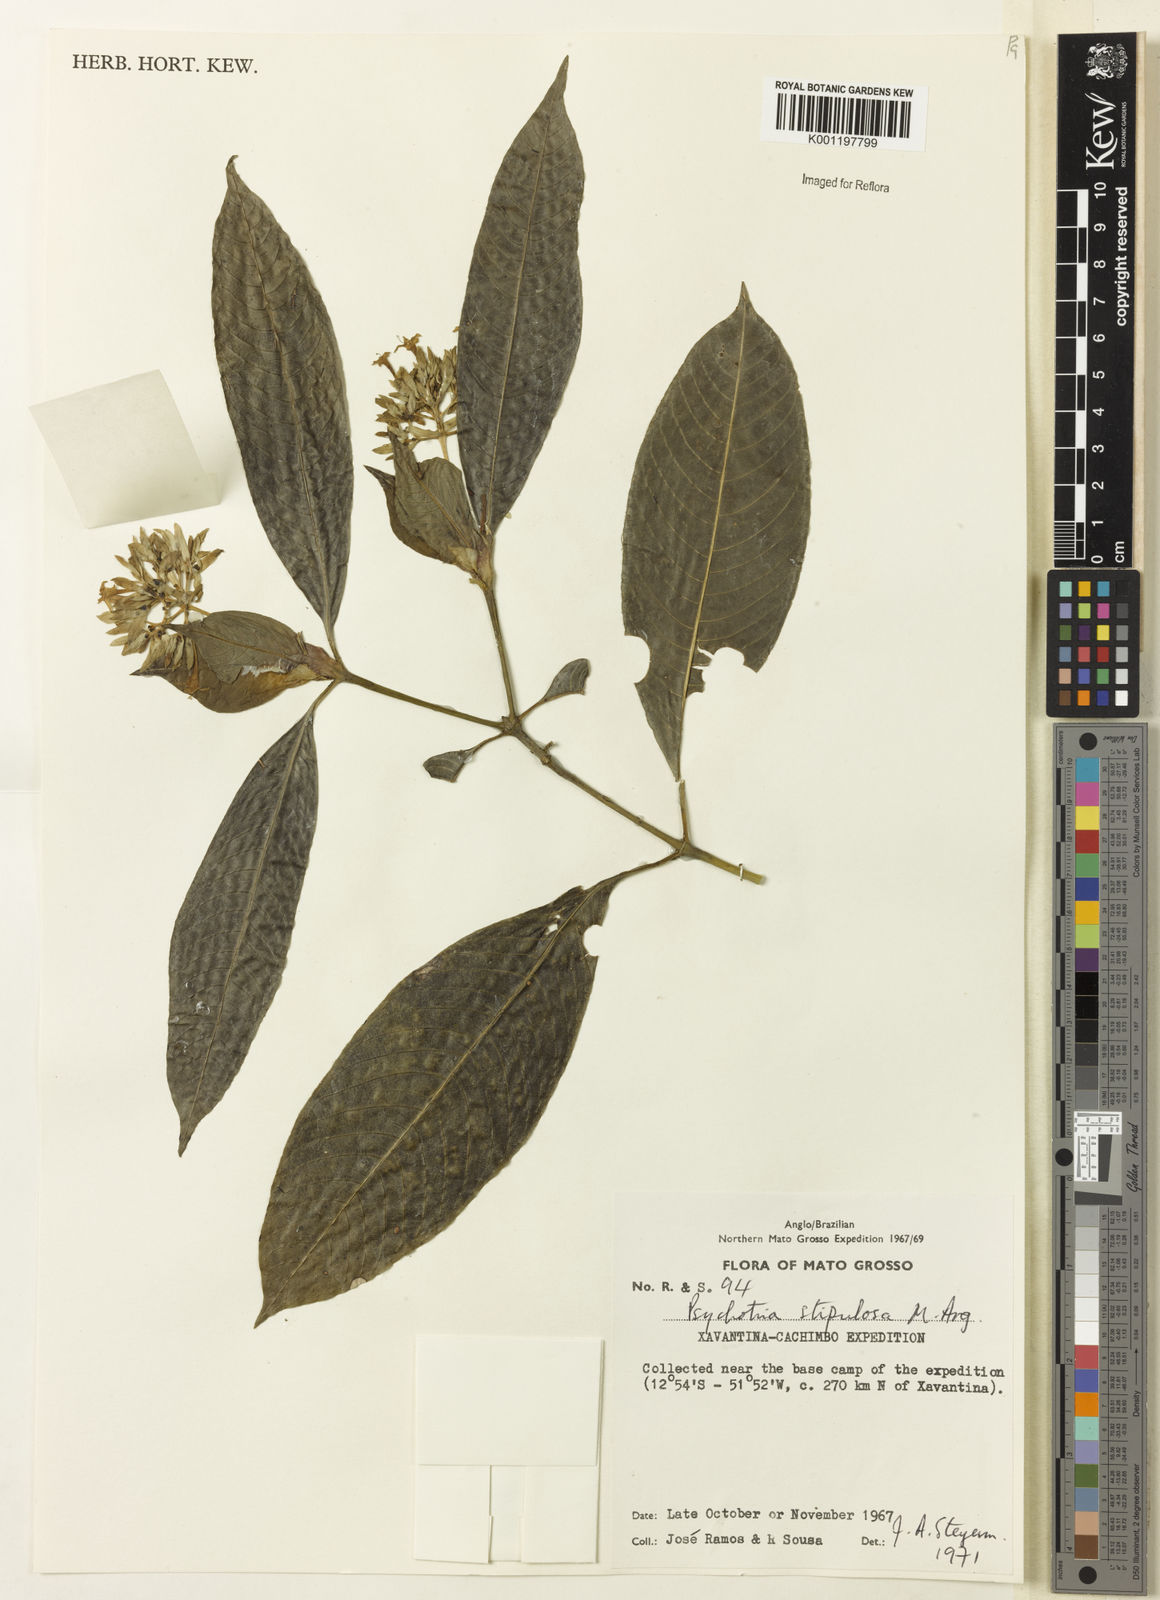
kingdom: Plantae
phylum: Tracheophyta
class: Magnoliopsida
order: Gentianales
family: Rubiaceae
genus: Psychotria
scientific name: Psychotria
